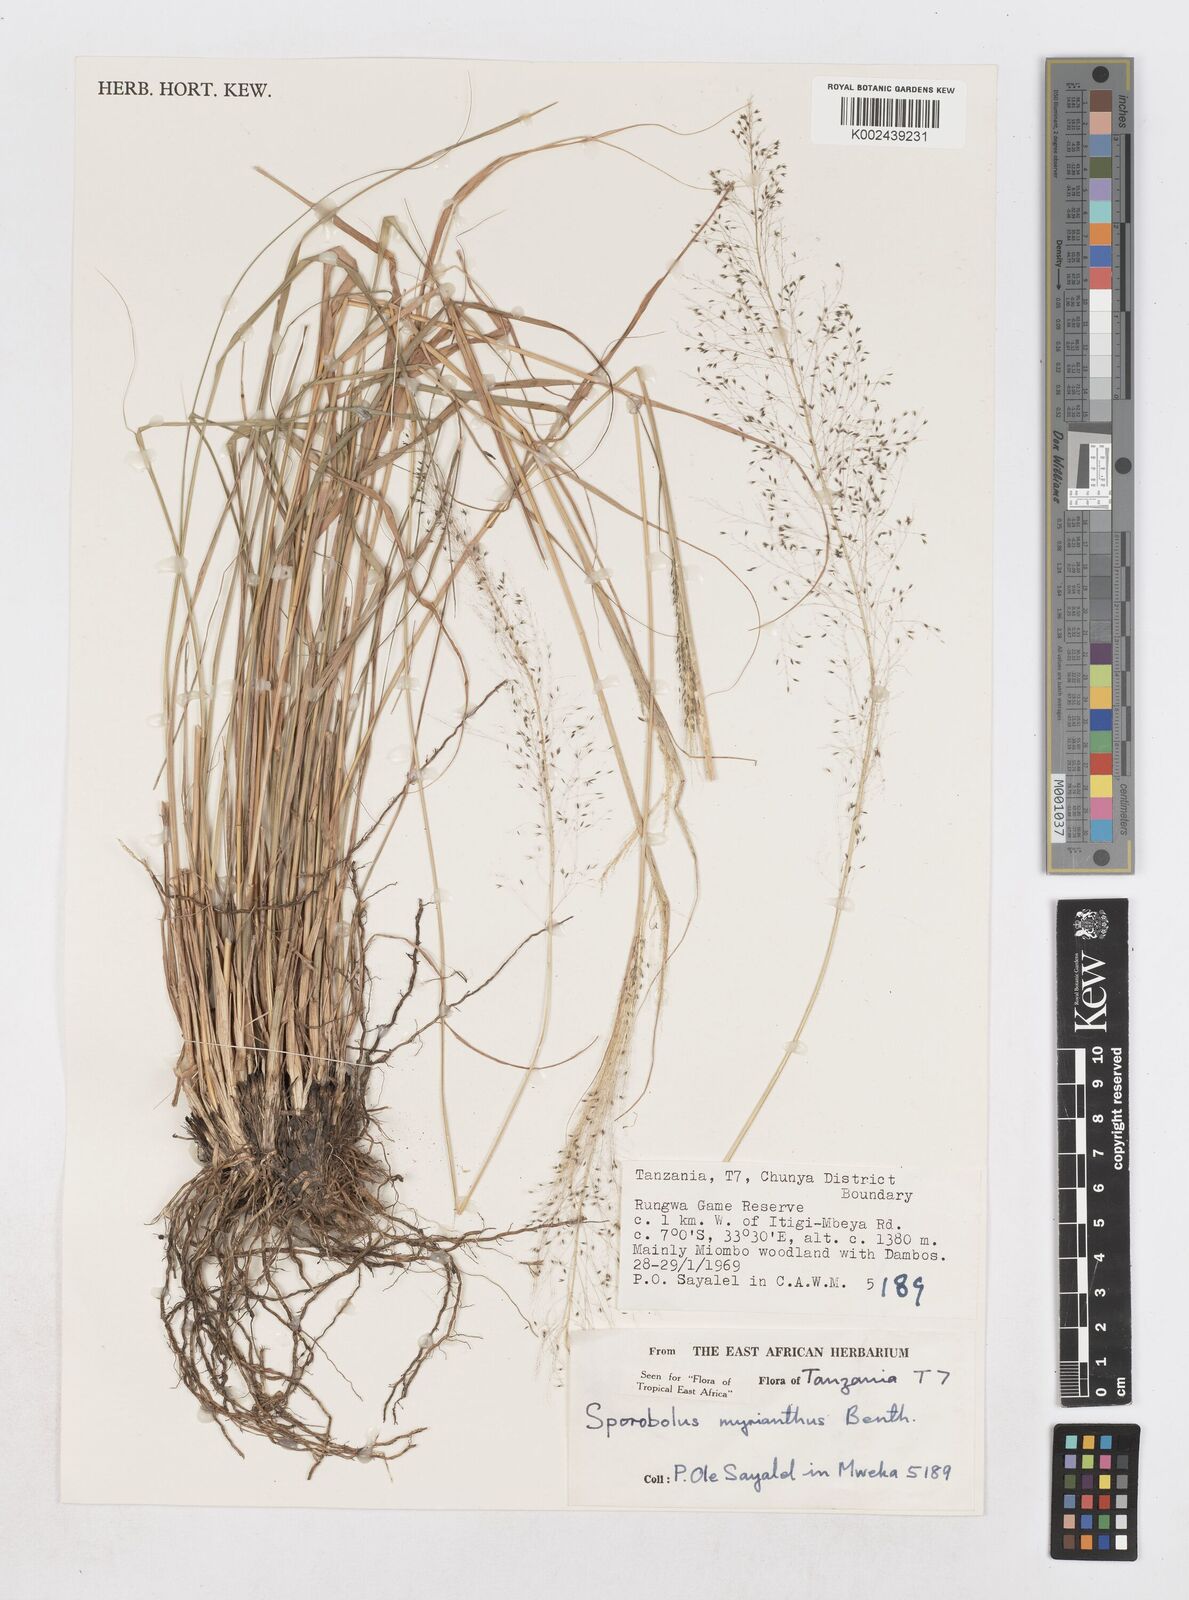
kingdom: Plantae
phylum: Tracheophyta
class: Liliopsida
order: Poales
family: Poaceae
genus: Sporobolus
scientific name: Sporobolus myrianthus
